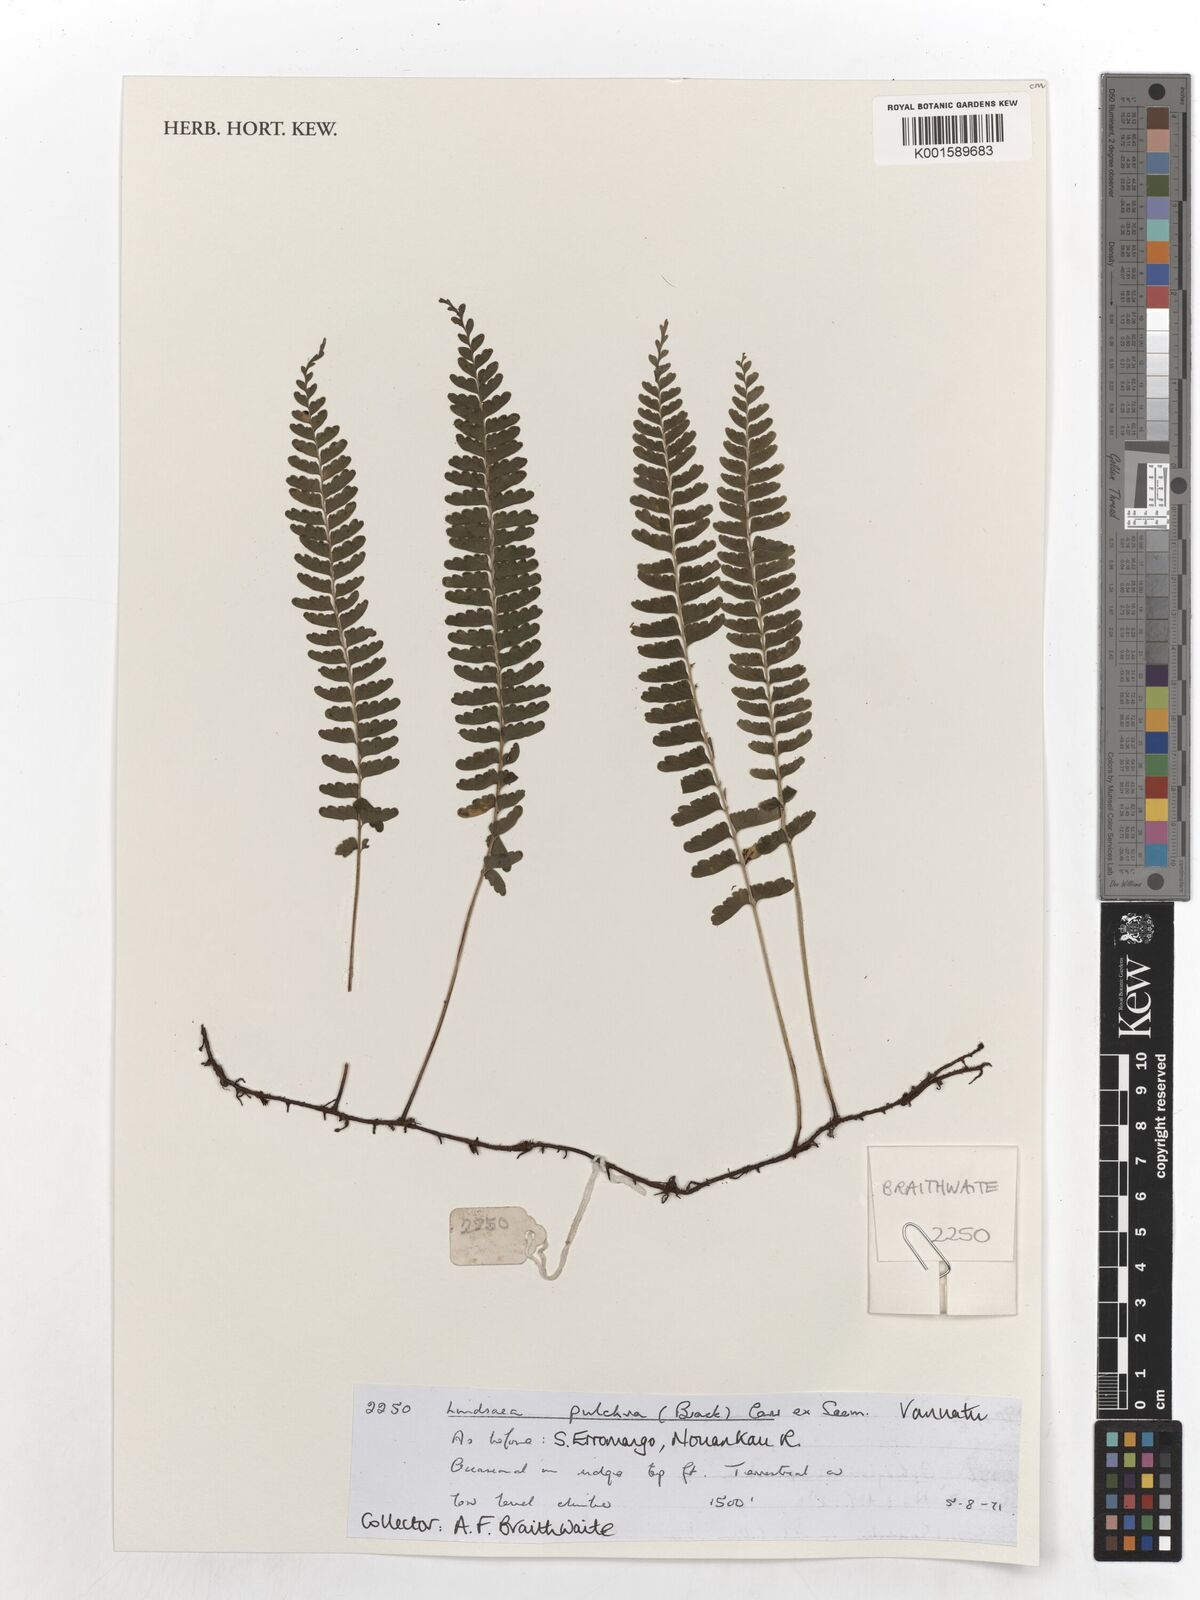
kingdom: Plantae
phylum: Tracheophyta
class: Polypodiopsida
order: Polypodiales
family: Lindsaeaceae
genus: Lindsaea
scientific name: Lindsaea pulchra
